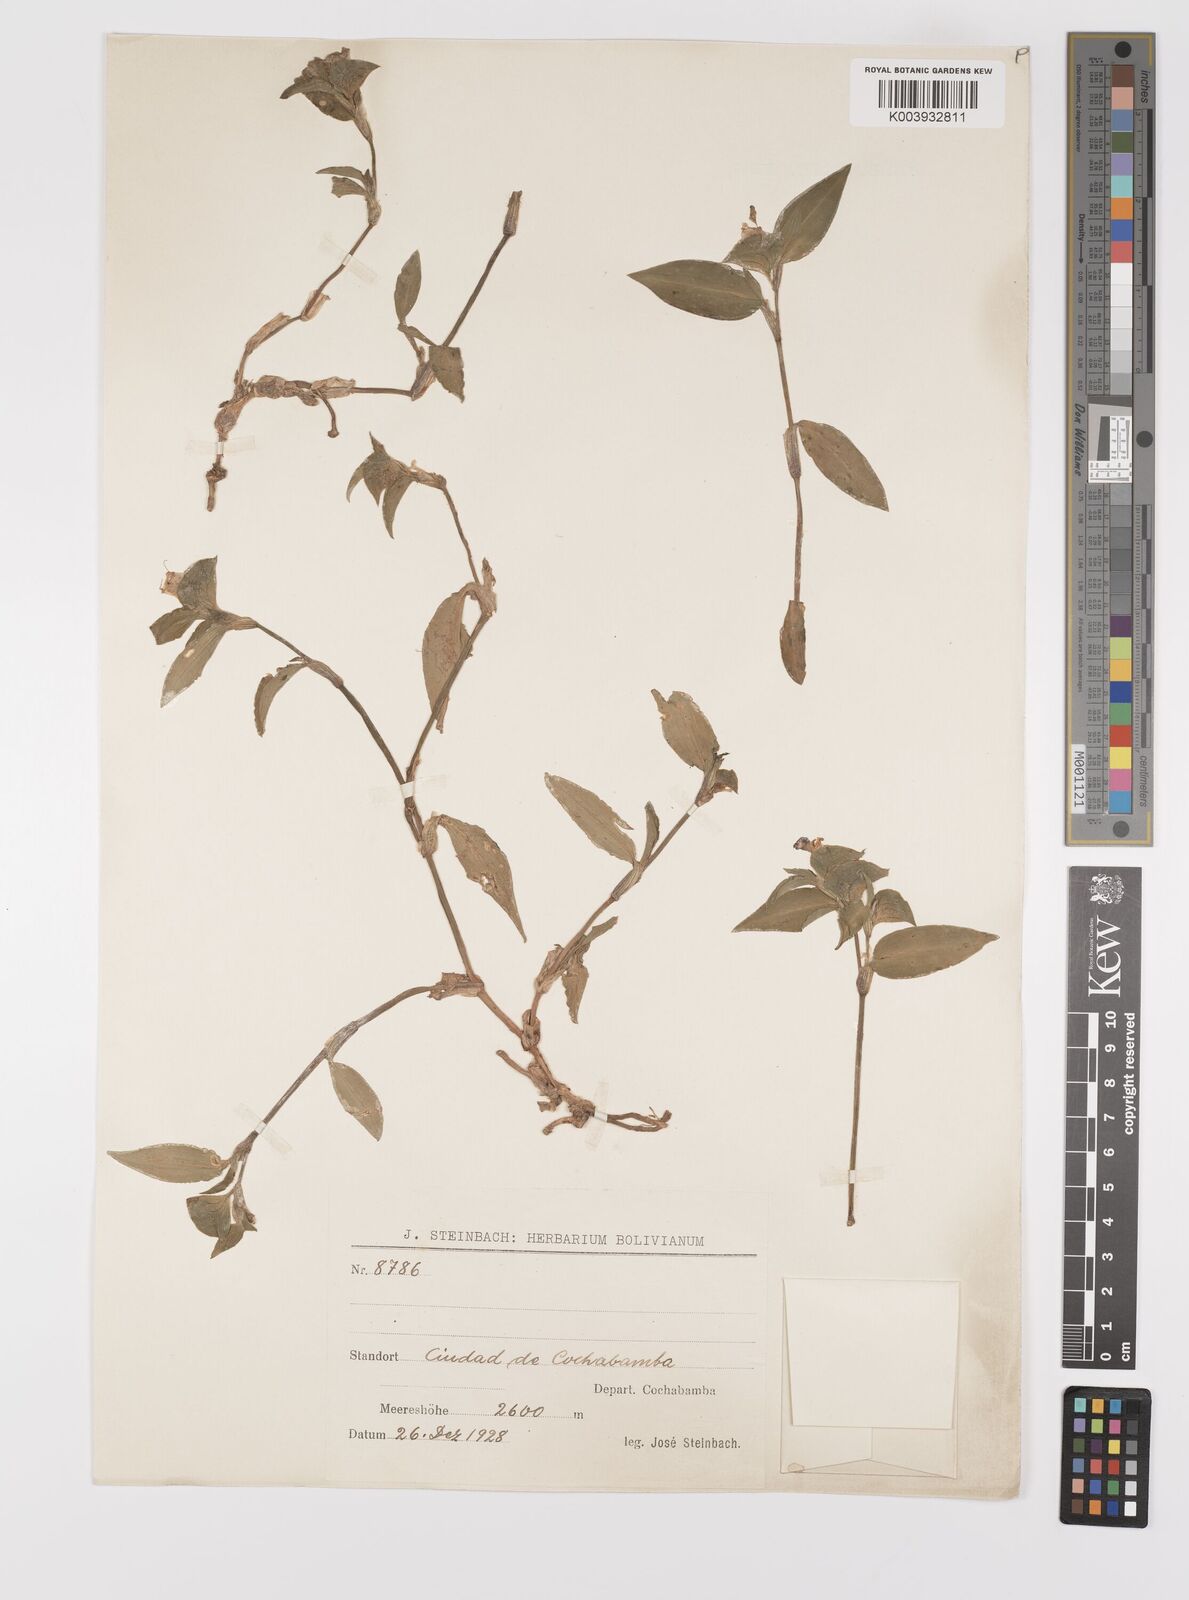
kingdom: Plantae
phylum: Tracheophyta
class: Liliopsida
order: Commelinales
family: Commelinaceae
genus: Commelina
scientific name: Commelina
